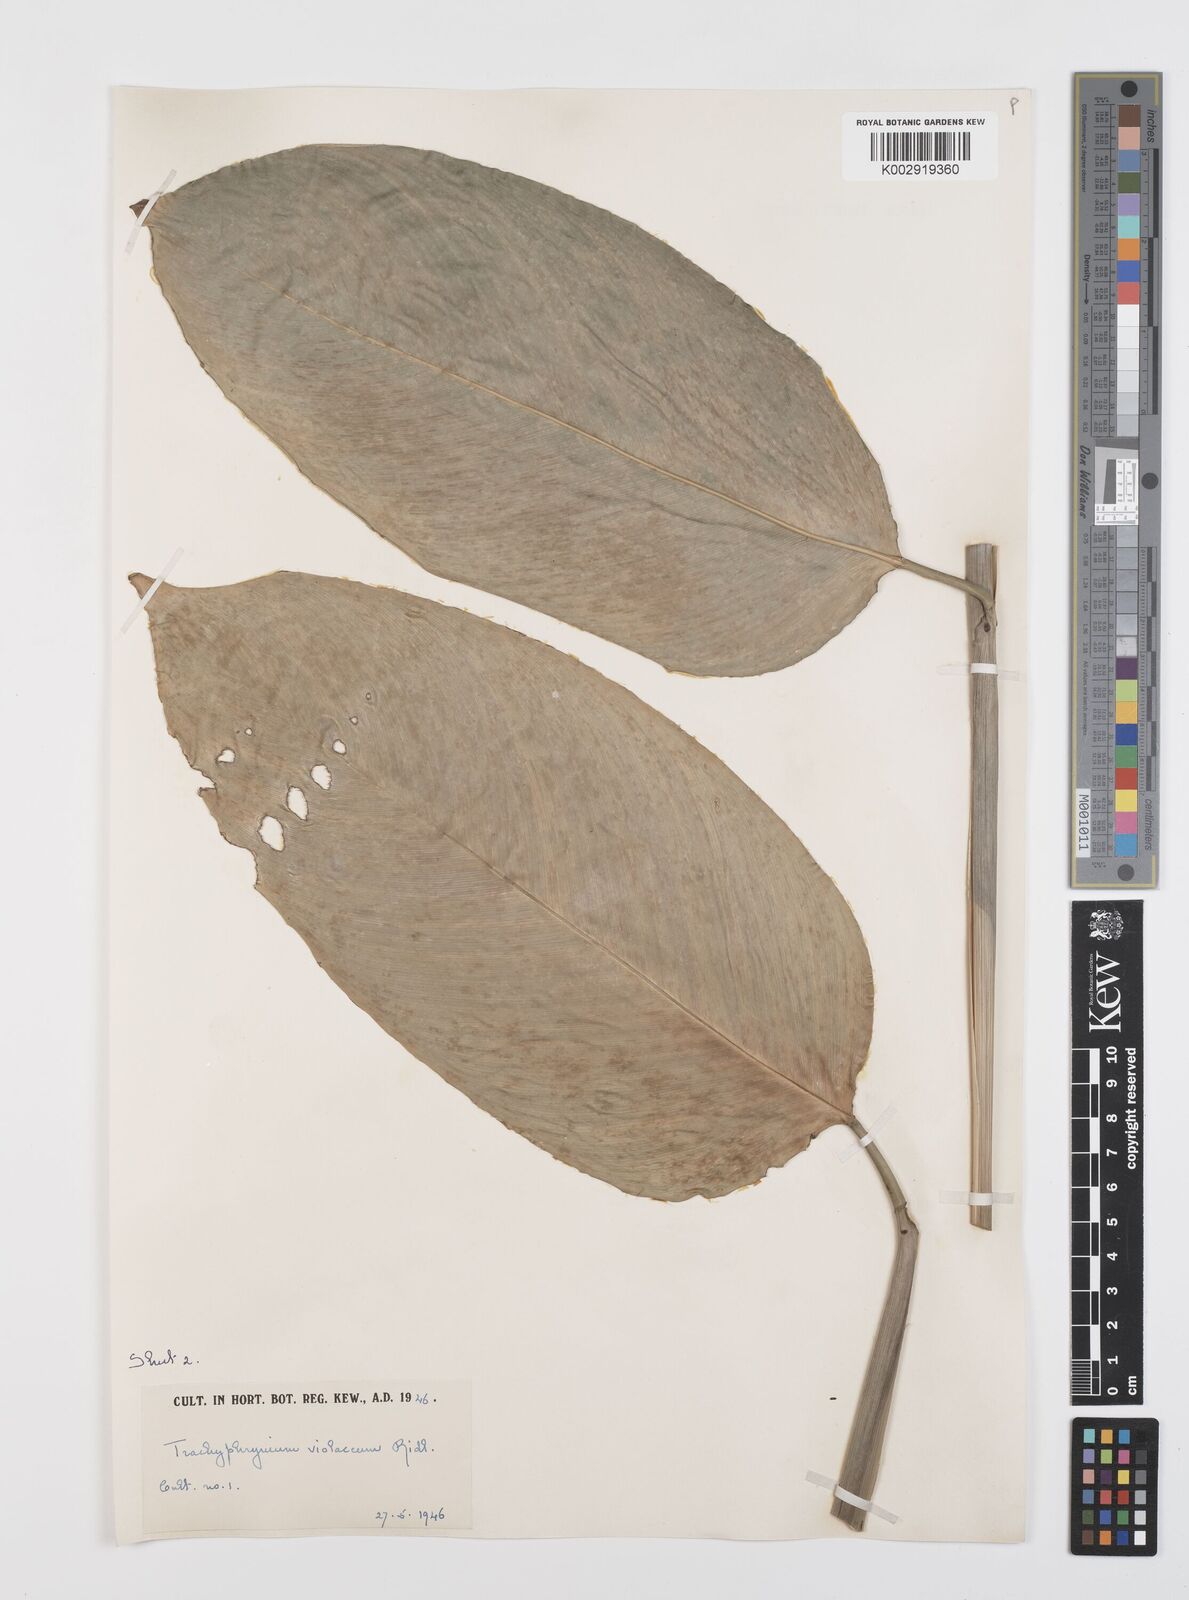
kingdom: Plantae
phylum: Tracheophyta
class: Liliopsida
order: Zingiberales
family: Marantaceae
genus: Hypselodelphys
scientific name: Hypselodelphys poggeana
